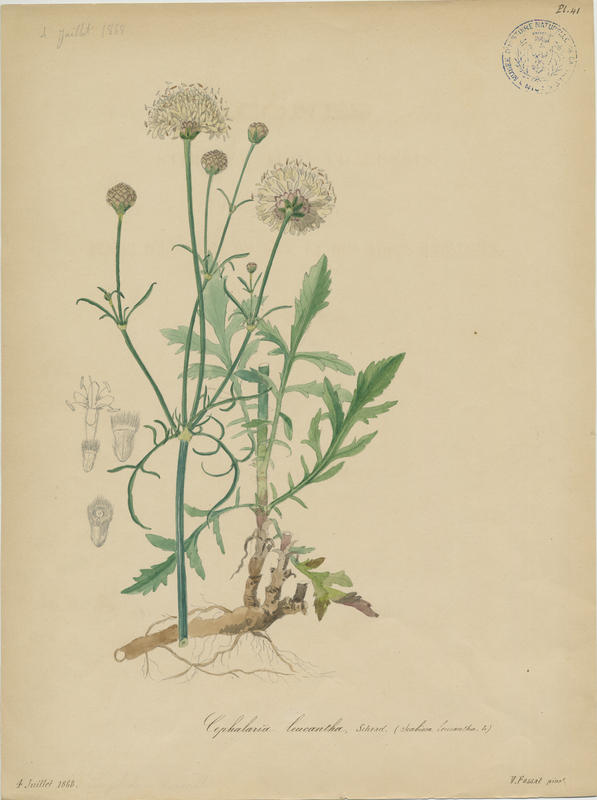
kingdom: Plantae
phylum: Tracheophyta
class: Magnoliopsida
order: Dipsacales
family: Dipsacaceae
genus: Cephalaria
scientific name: Cephalaria leucantha
